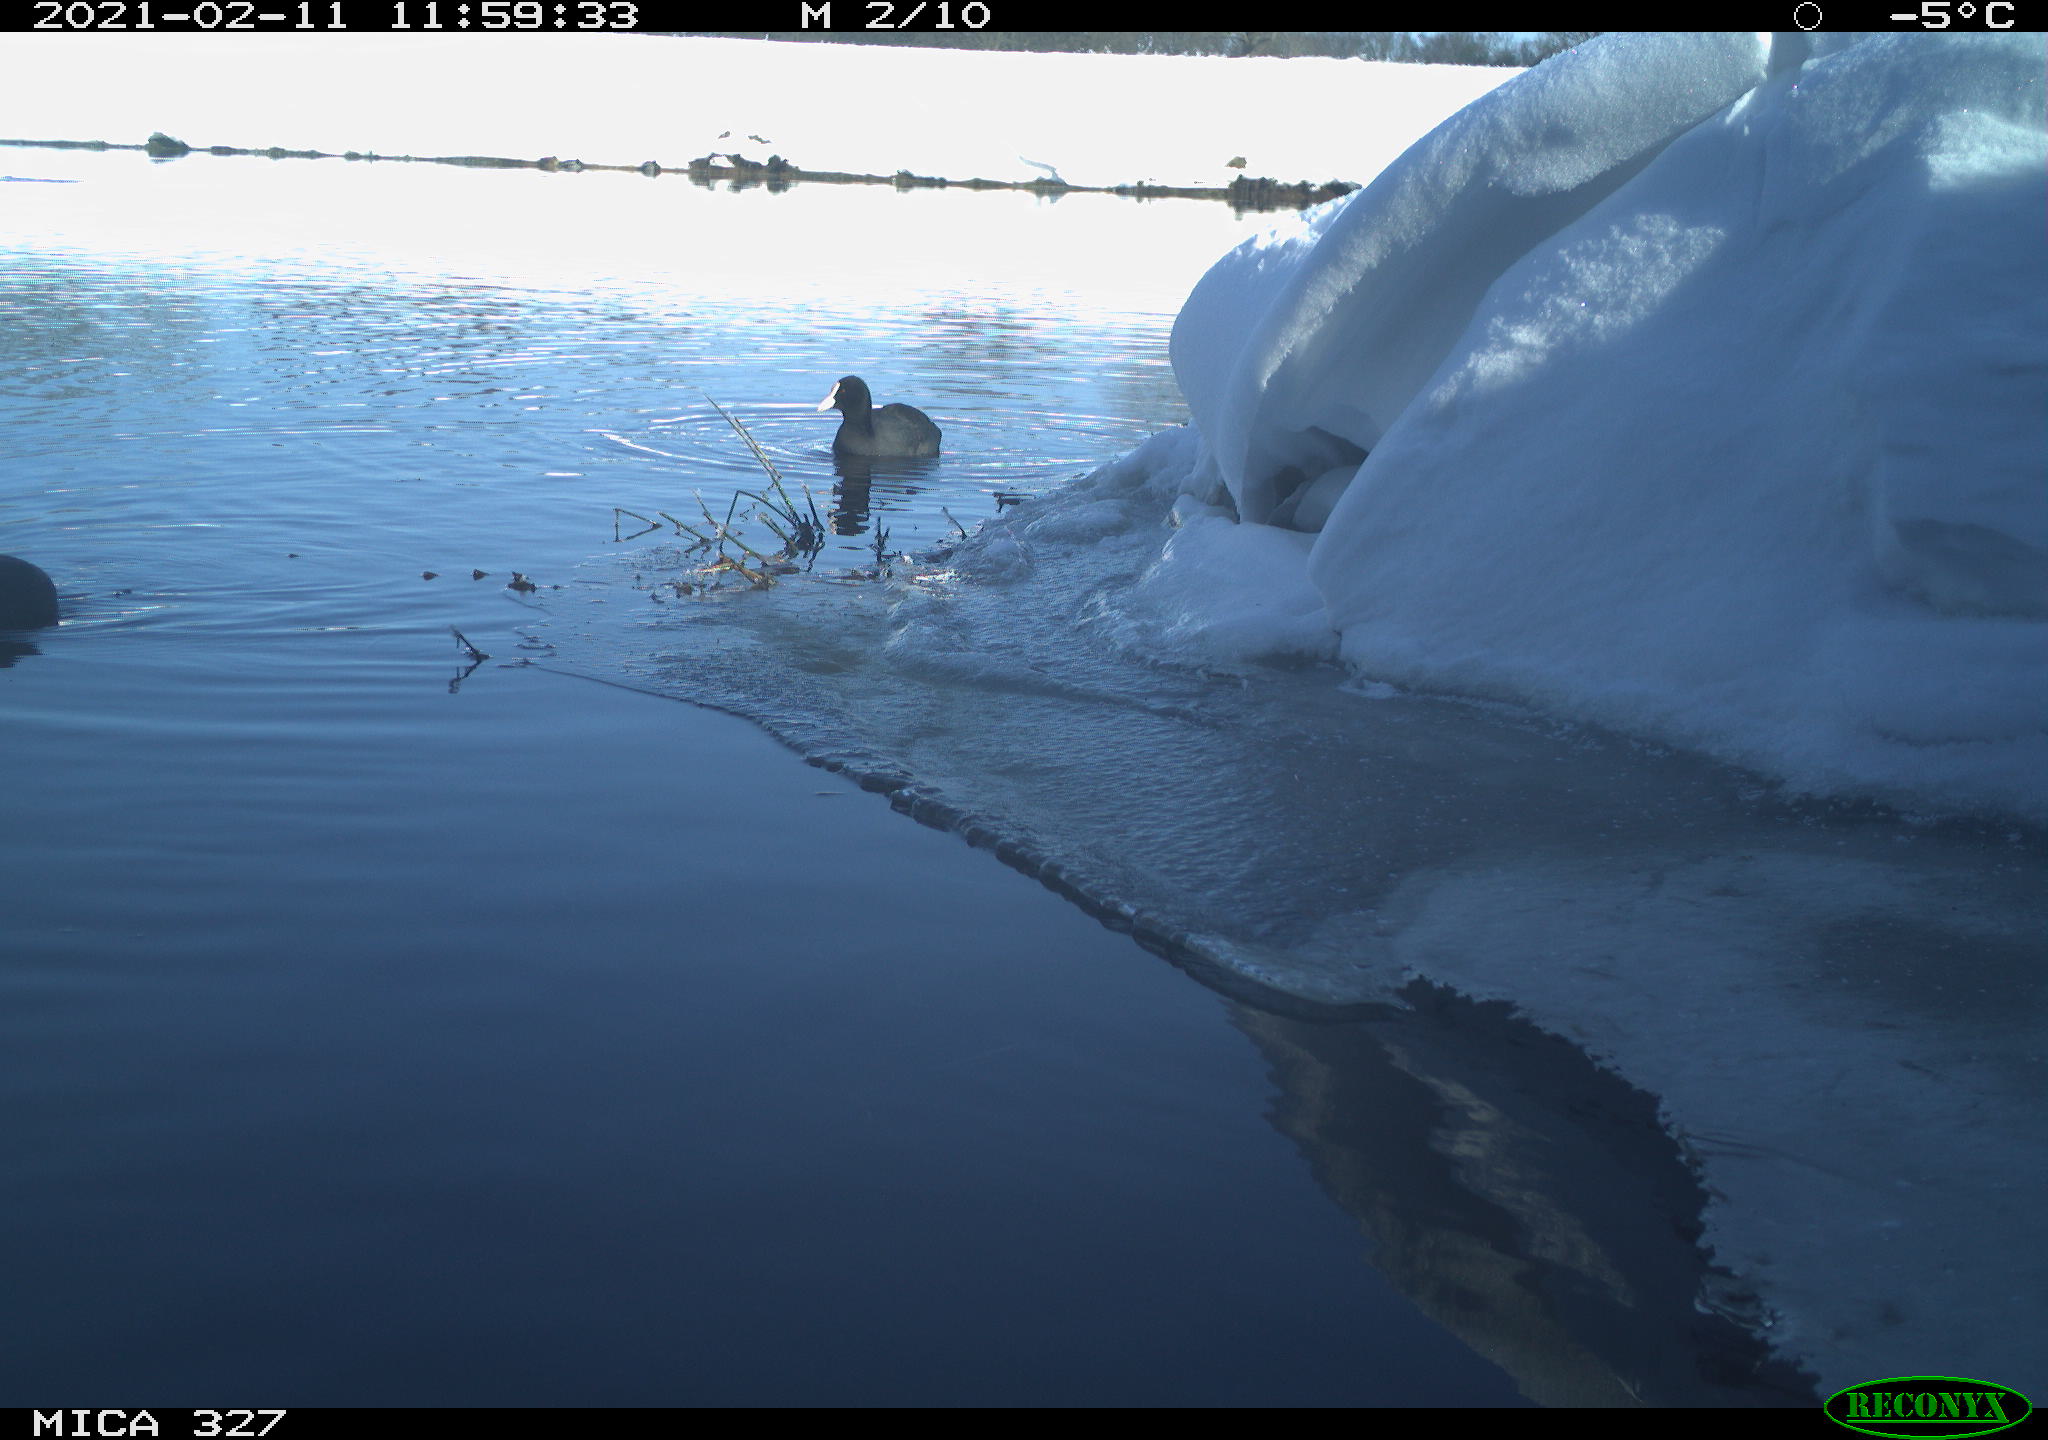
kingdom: Animalia
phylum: Chordata
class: Aves
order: Gruiformes
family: Rallidae
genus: Fulica
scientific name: Fulica atra
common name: Eurasian coot
